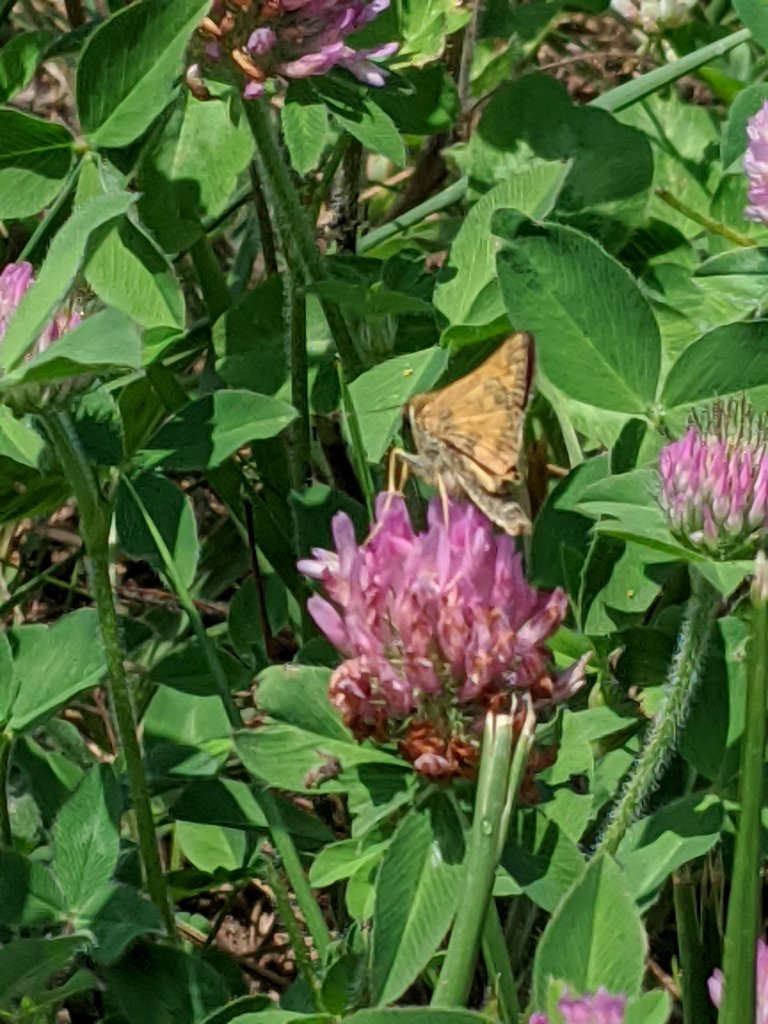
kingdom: Animalia
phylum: Arthropoda
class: Insecta
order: Lepidoptera
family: Hesperiidae
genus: Atalopedes
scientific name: Atalopedes campestris
